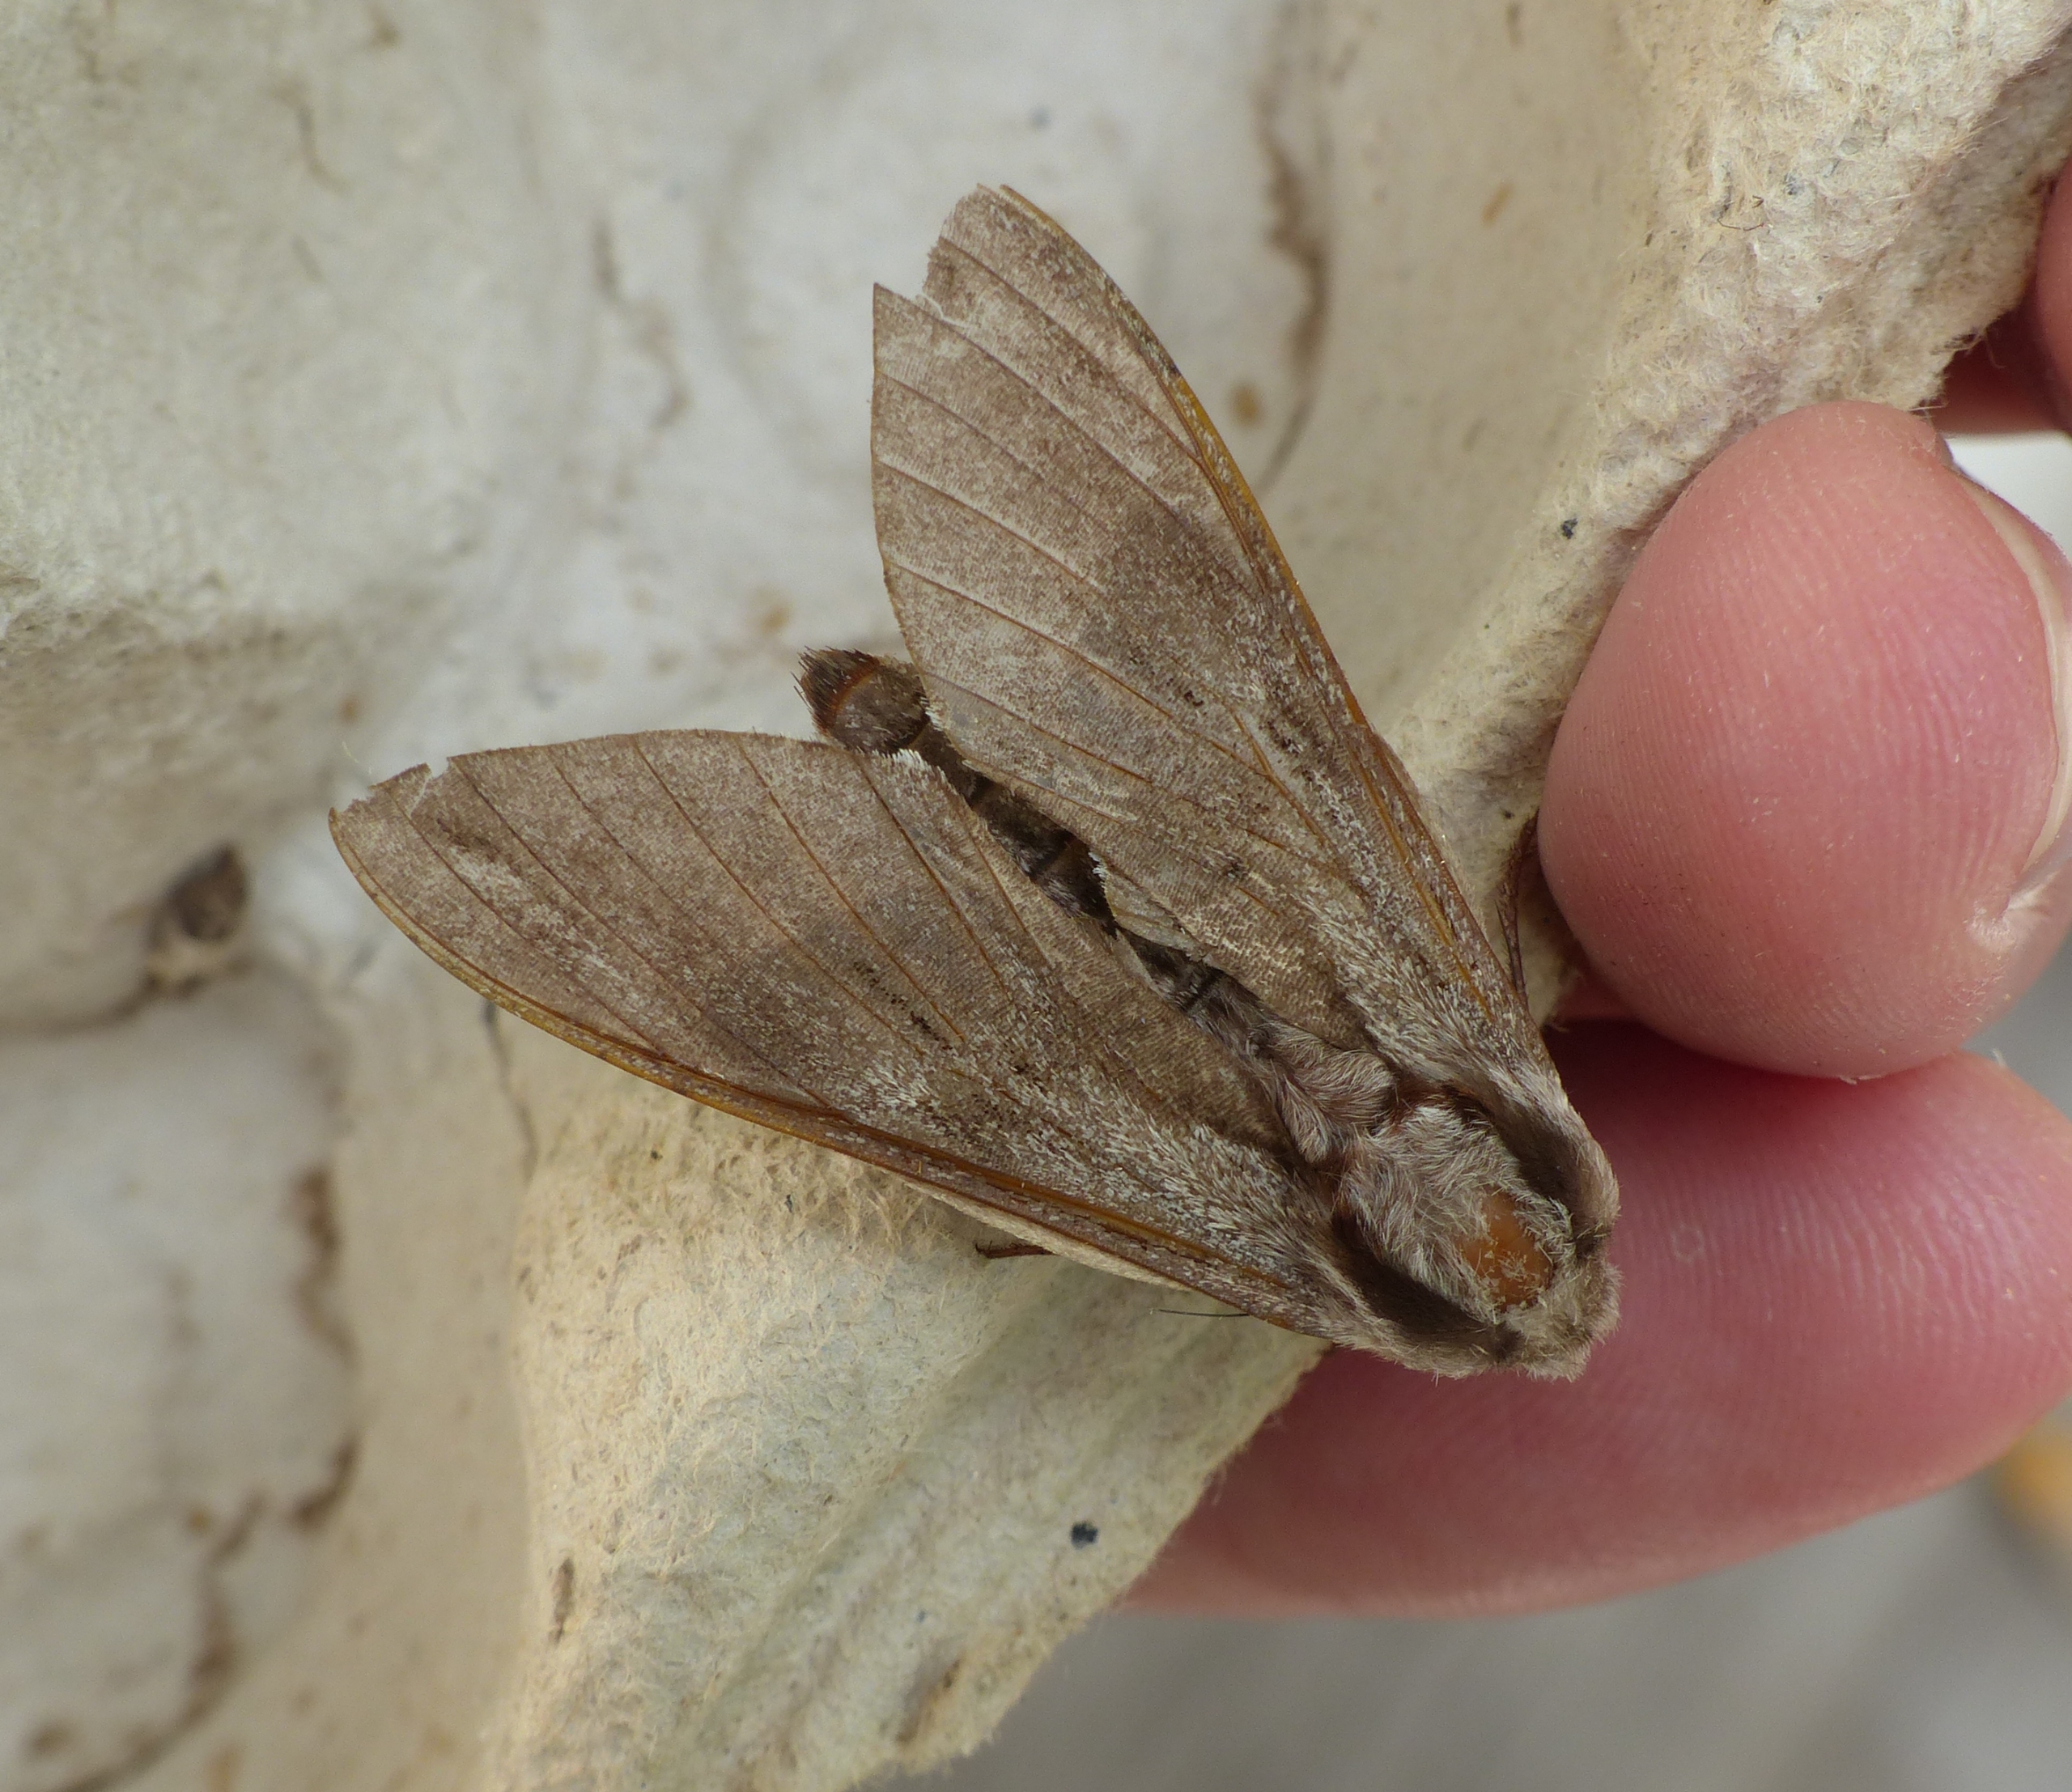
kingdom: Animalia
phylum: Arthropoda
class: Insecta
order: Lepidoptera
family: Sphingidae
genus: Sphinx
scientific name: Sphinx pinastri
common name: Fyrresværmer
